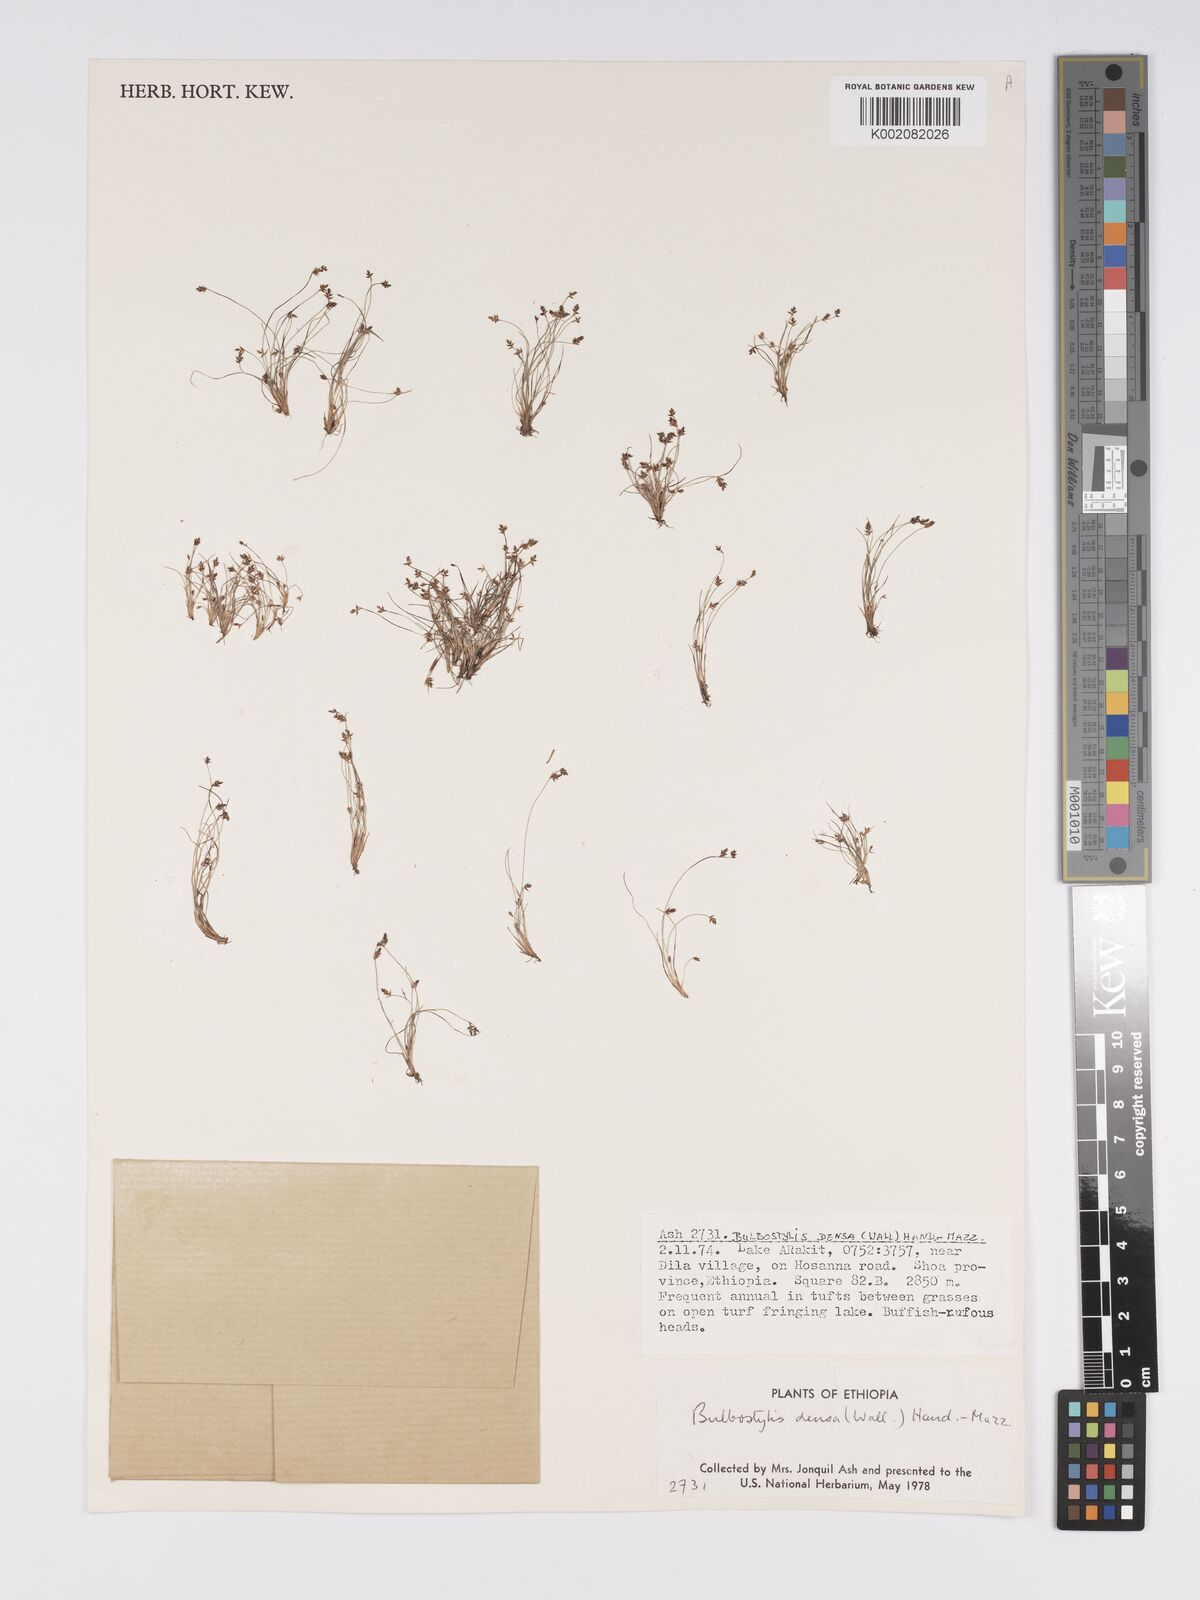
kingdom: Plantae
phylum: Tracheophyta
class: Liliopsida
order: Poales
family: Cyperaceae
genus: Bulbostylis
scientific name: Bulbostylis densa
